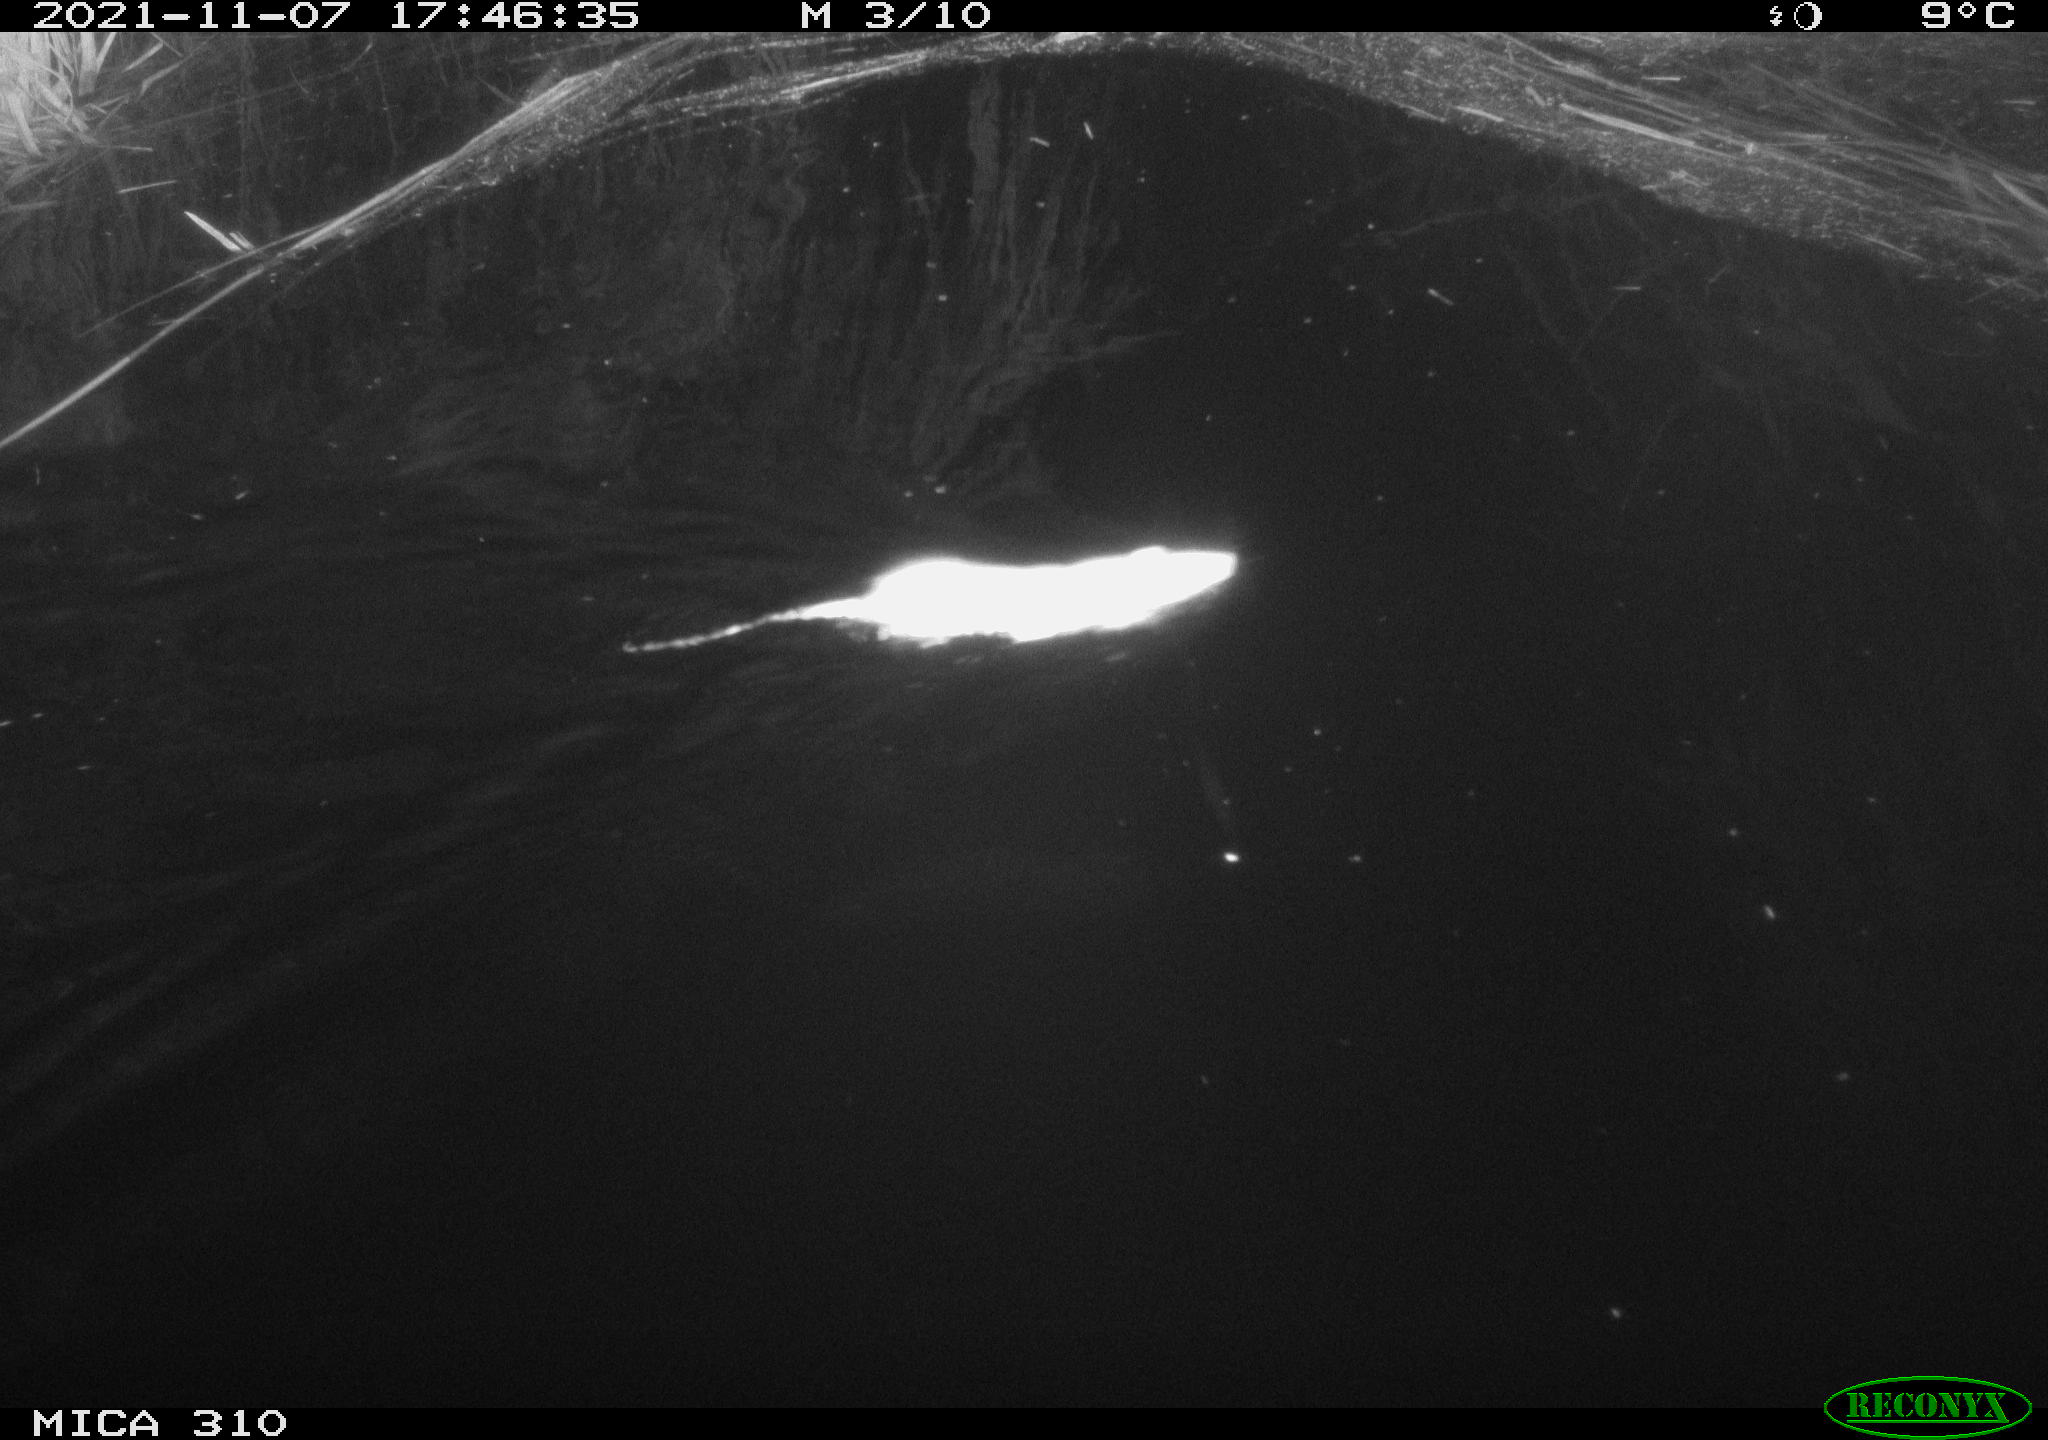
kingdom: Animalia
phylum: Chordata
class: Mammalia
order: Rodentia
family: Muridae
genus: Rattus
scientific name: Rattus norvegicus
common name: Brown rat
